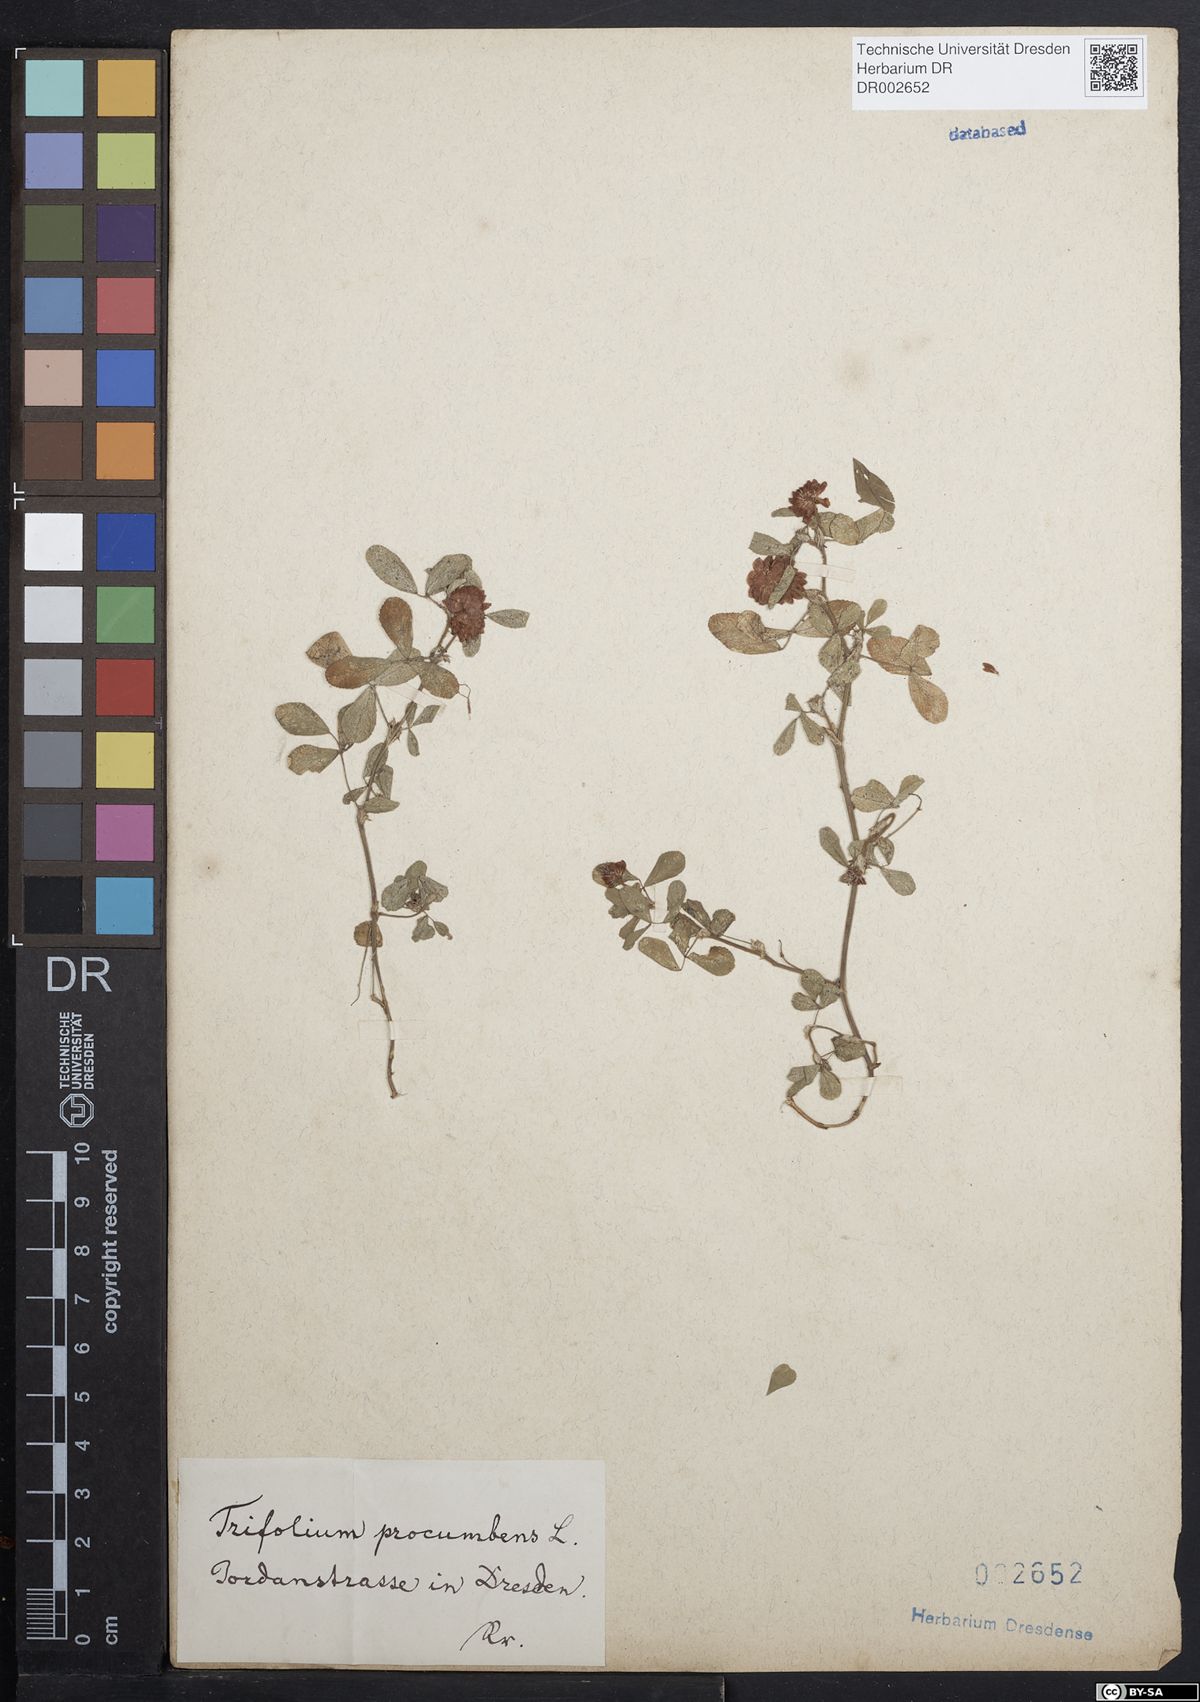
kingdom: Plantae
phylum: Tracheophyta
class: Magnoliopsida
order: Fabales
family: Fabaceae
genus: Trifolium
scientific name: Trifolium campestre
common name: Field clover
